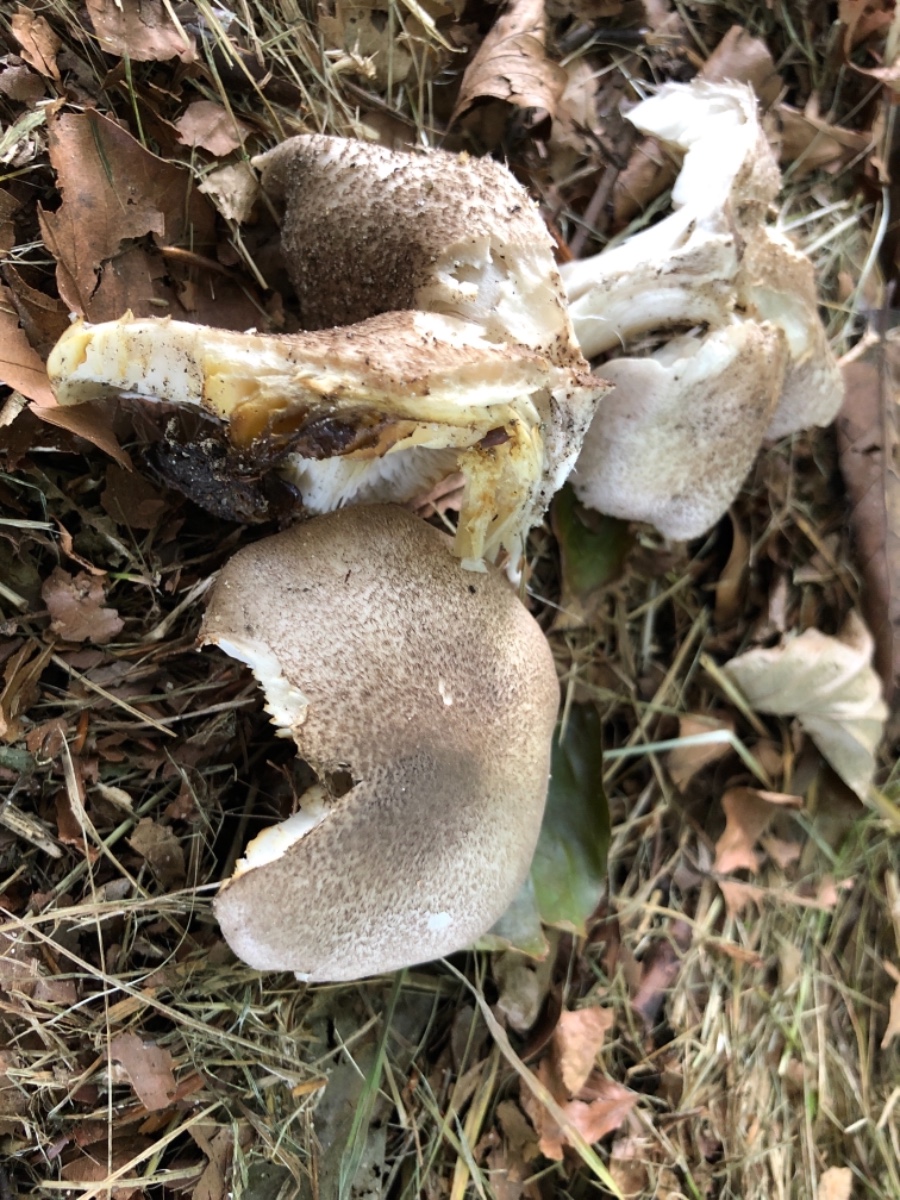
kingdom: Fungi
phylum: Basidiomycota
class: Agaricomycetes
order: Agaricales
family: Tricholomataceae
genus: Tricholoma
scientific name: Tricholoma scalpturatum
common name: gulplettet ridderhat
